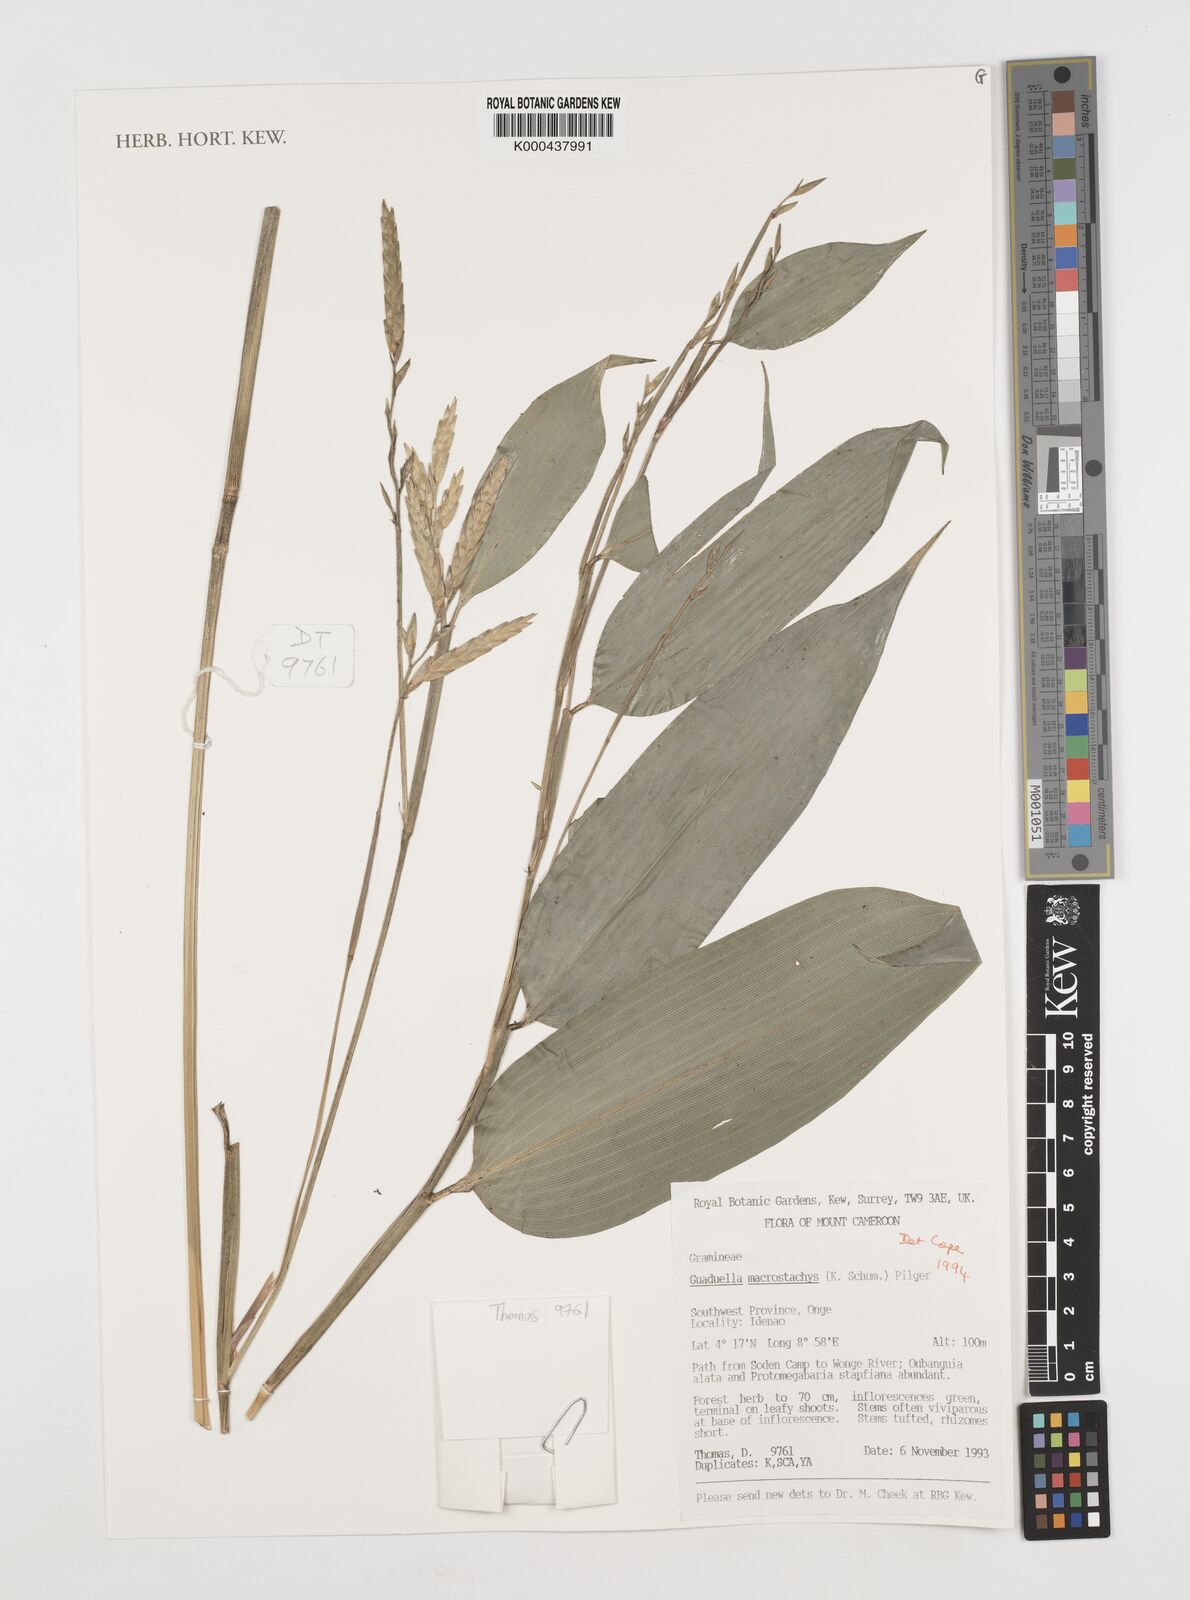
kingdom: Plantae
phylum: Tracheophyta
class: Liliopsida
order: Poales
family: Poaceae
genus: Guaduella
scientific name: Guaduella macrostachys
